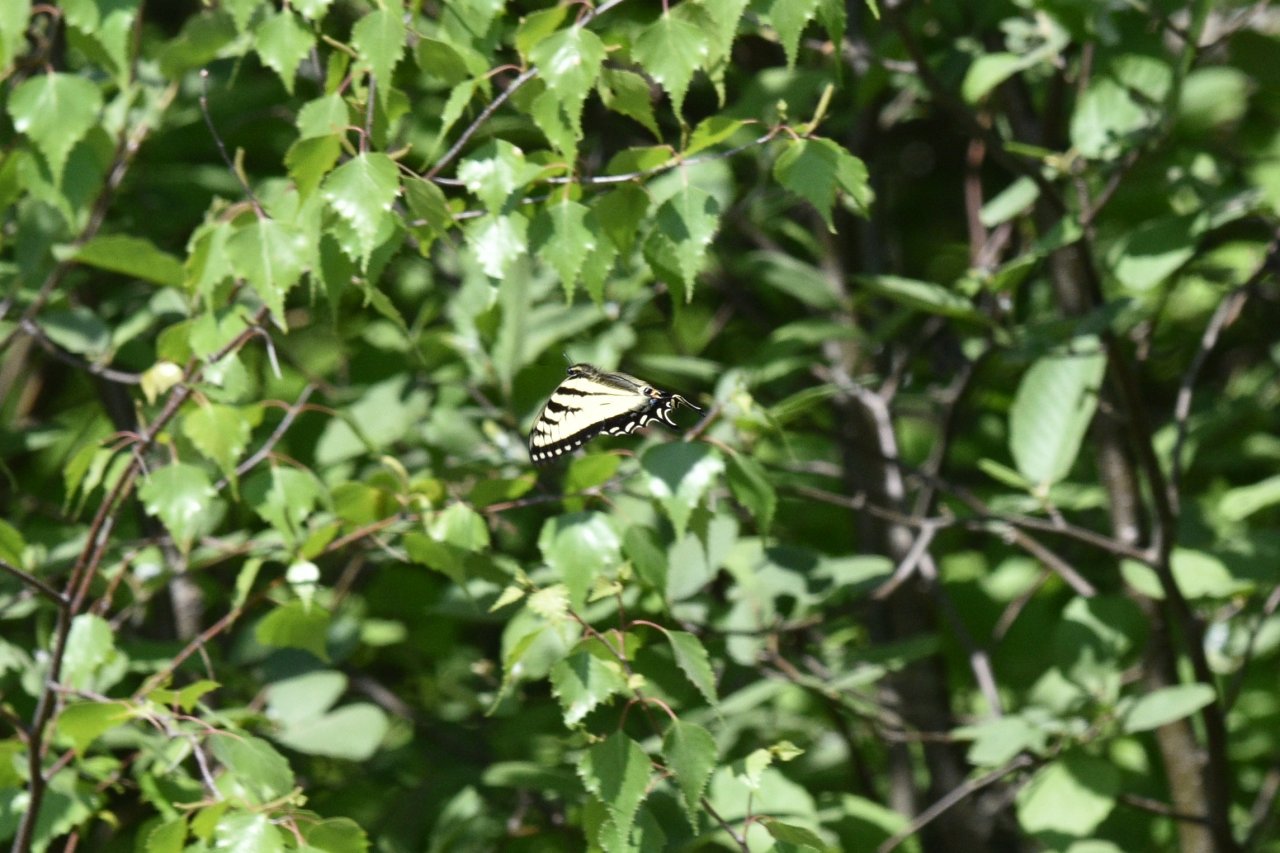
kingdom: Animalia
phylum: Arthropoda
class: Insecta
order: Lepidoptera
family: Papilionidae
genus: Pterourus
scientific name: Pterourus canadensis
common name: Canadian Tiger Swallowtail
